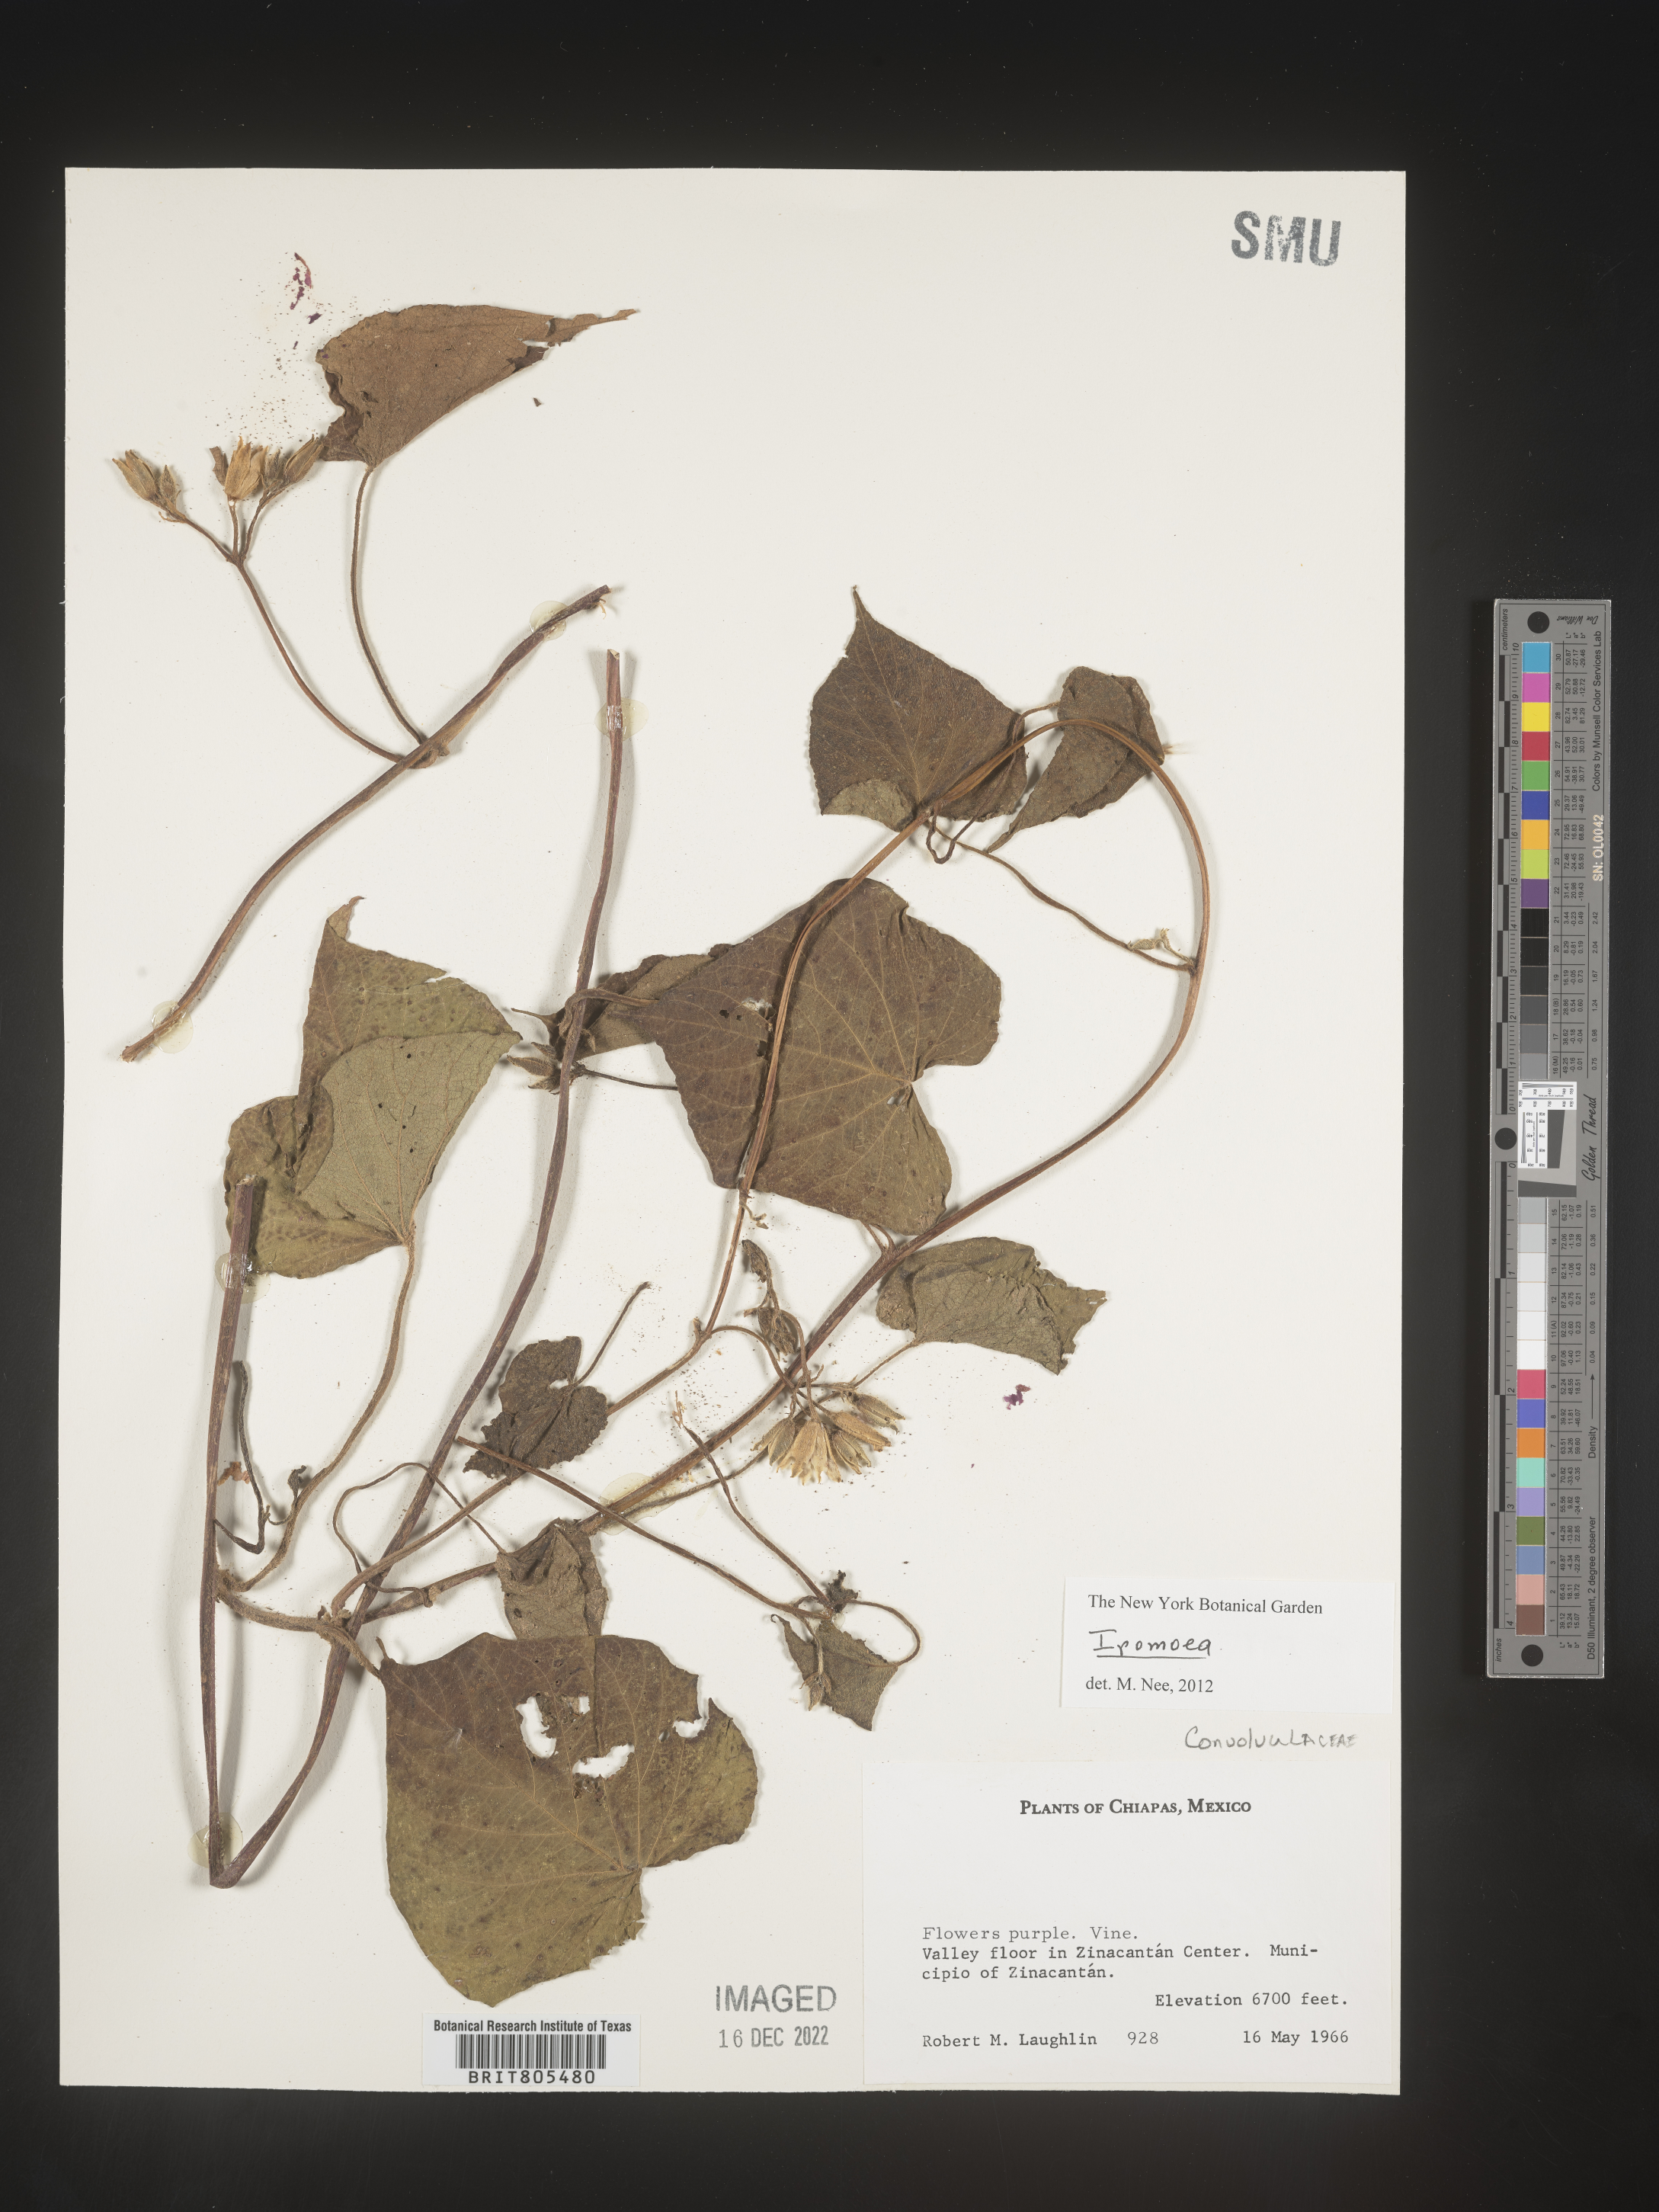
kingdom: Plantae
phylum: Tracheophyta
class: Magnoliopsida
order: Solanales
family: Convolvulaceae
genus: Ipomoea
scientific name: Ipomoea
